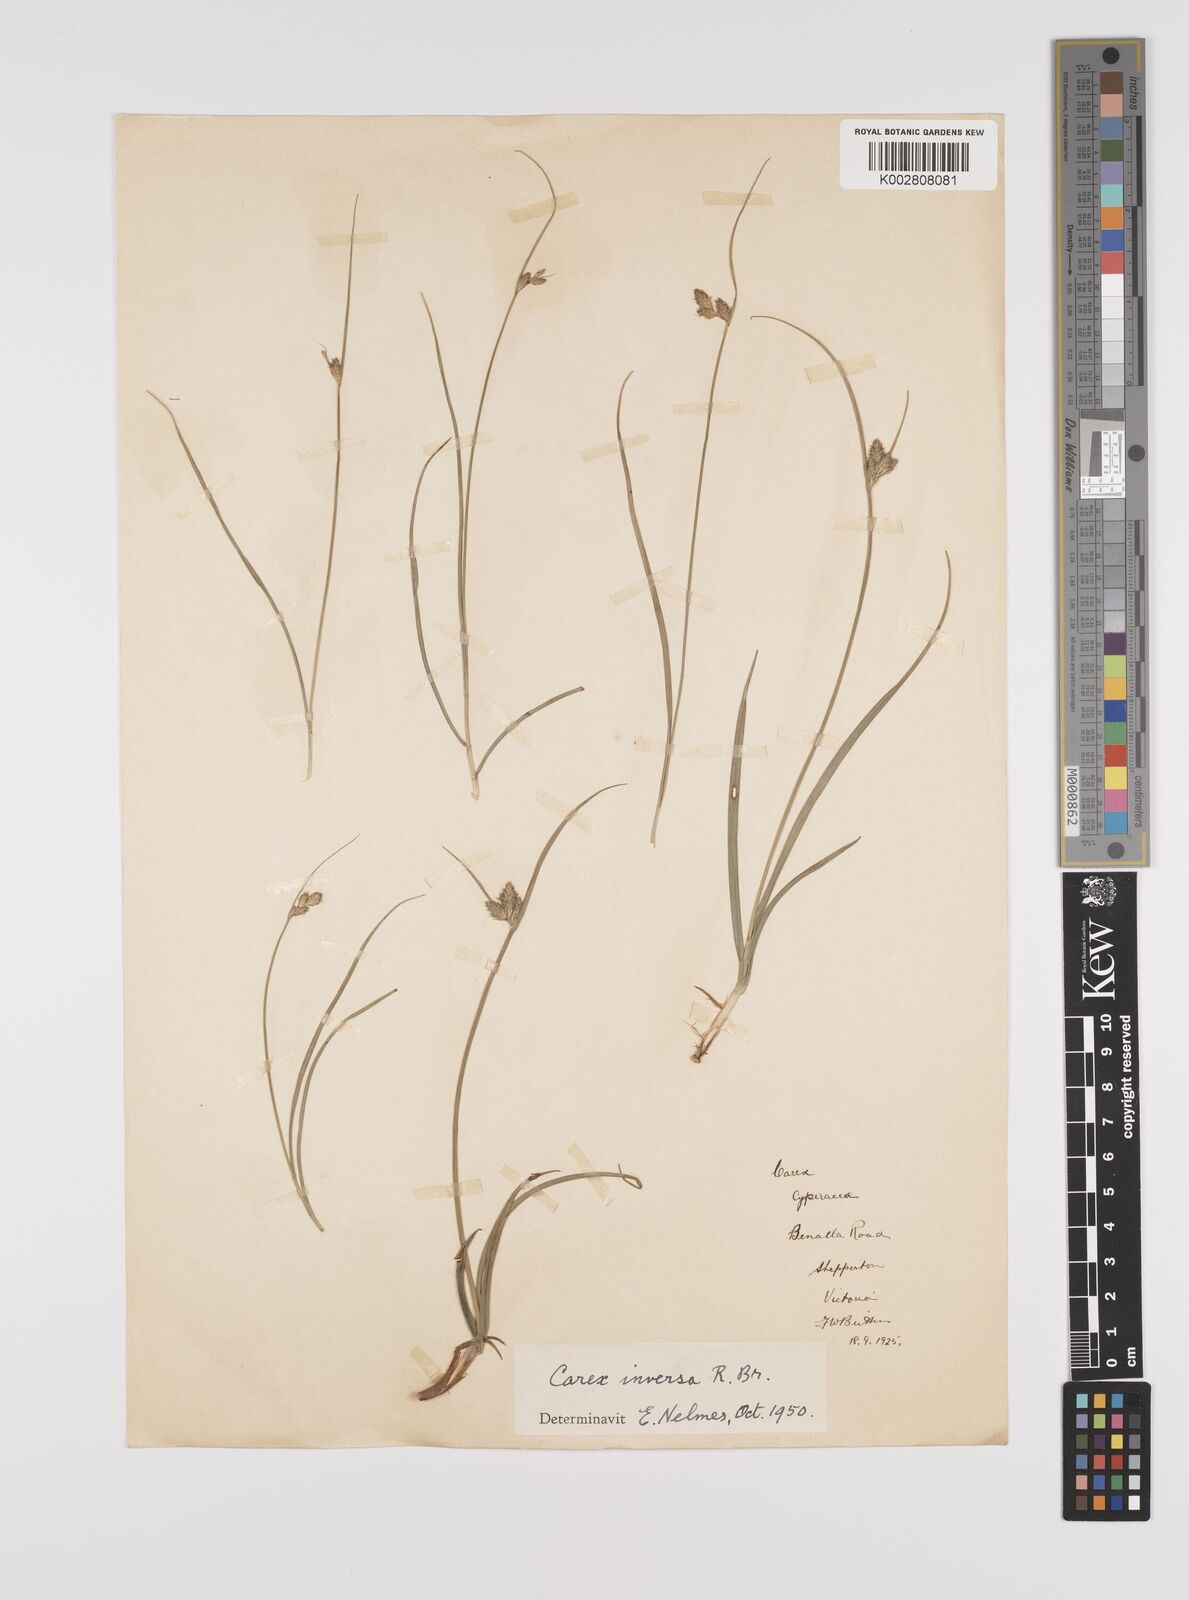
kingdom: Plantae
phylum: Tracheophyta
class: Liliopsida
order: Poales
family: Cyperaceae
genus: Carex
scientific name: Carex inversa
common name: Knob sedge
